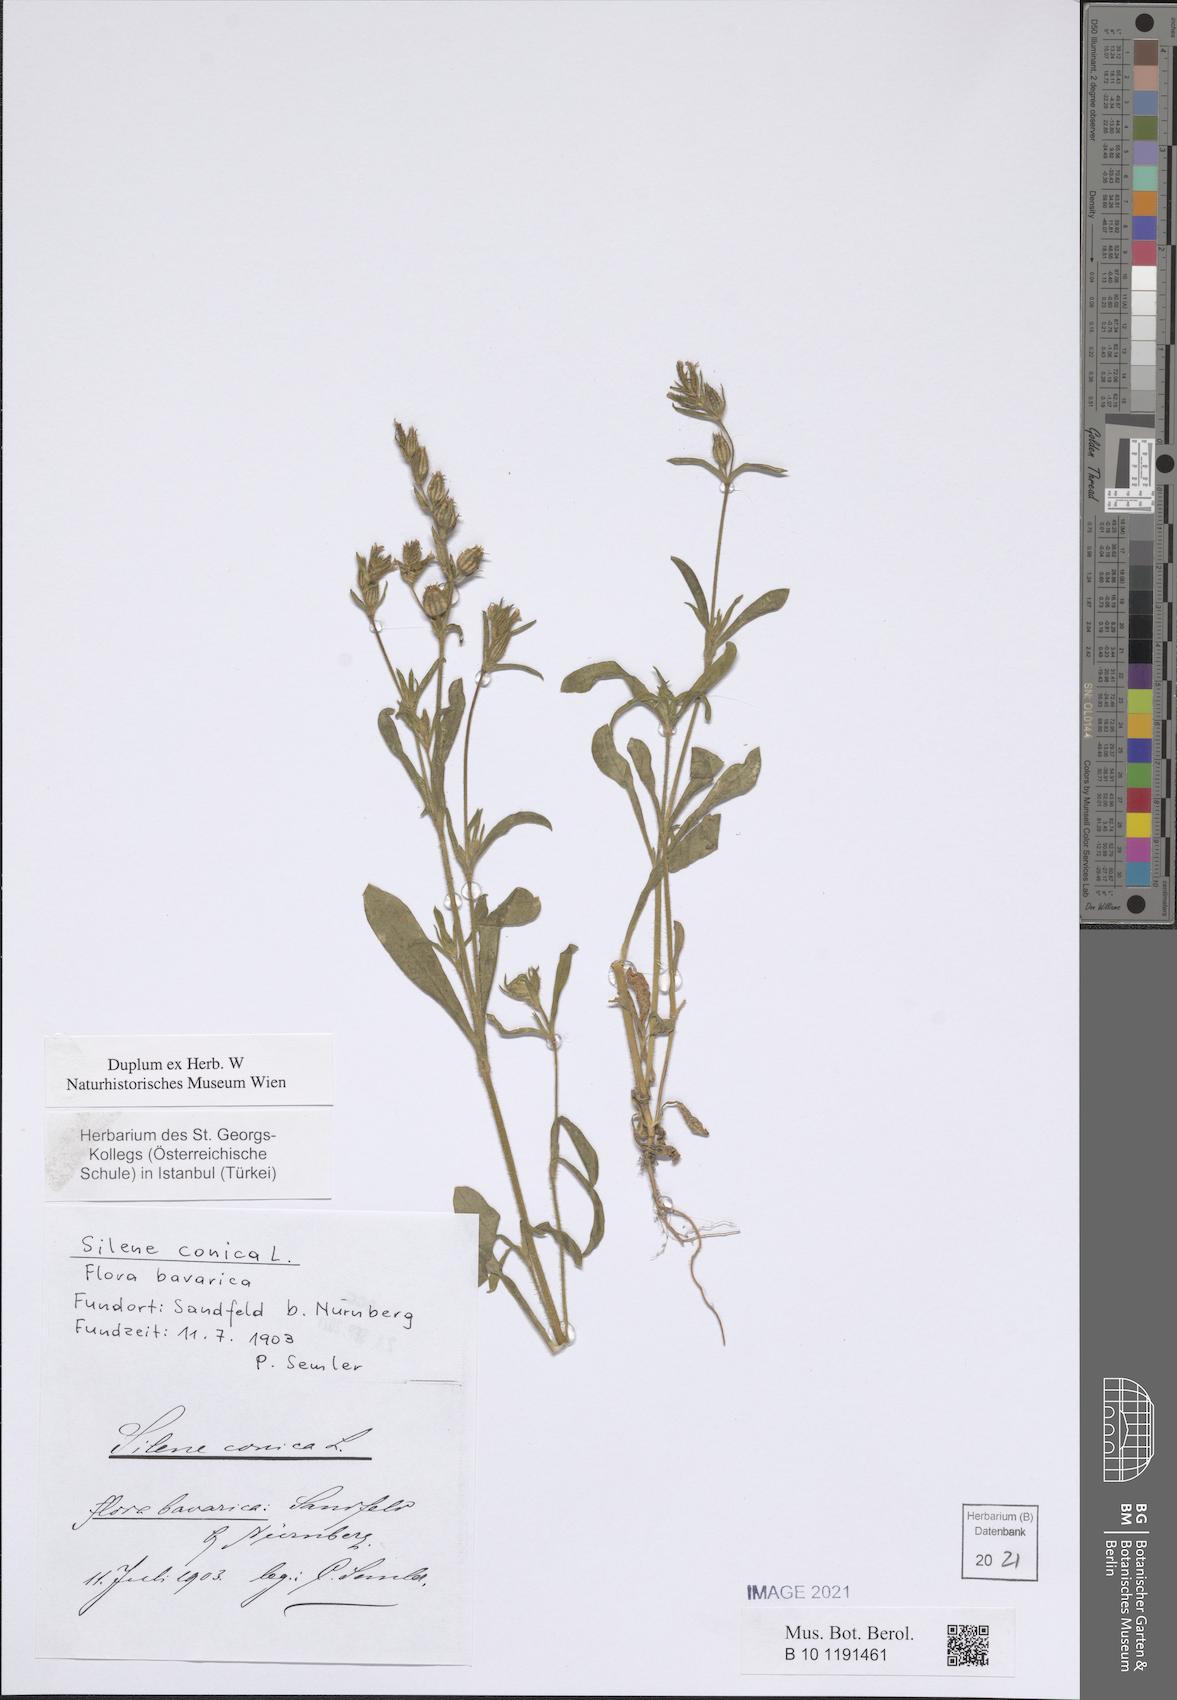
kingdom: Plantae
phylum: Tracheophyta
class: Magnoliopsida
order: Caryophyllales
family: Caryophyllaceae
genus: Silene
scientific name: Silene conica
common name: Sand catchfly
